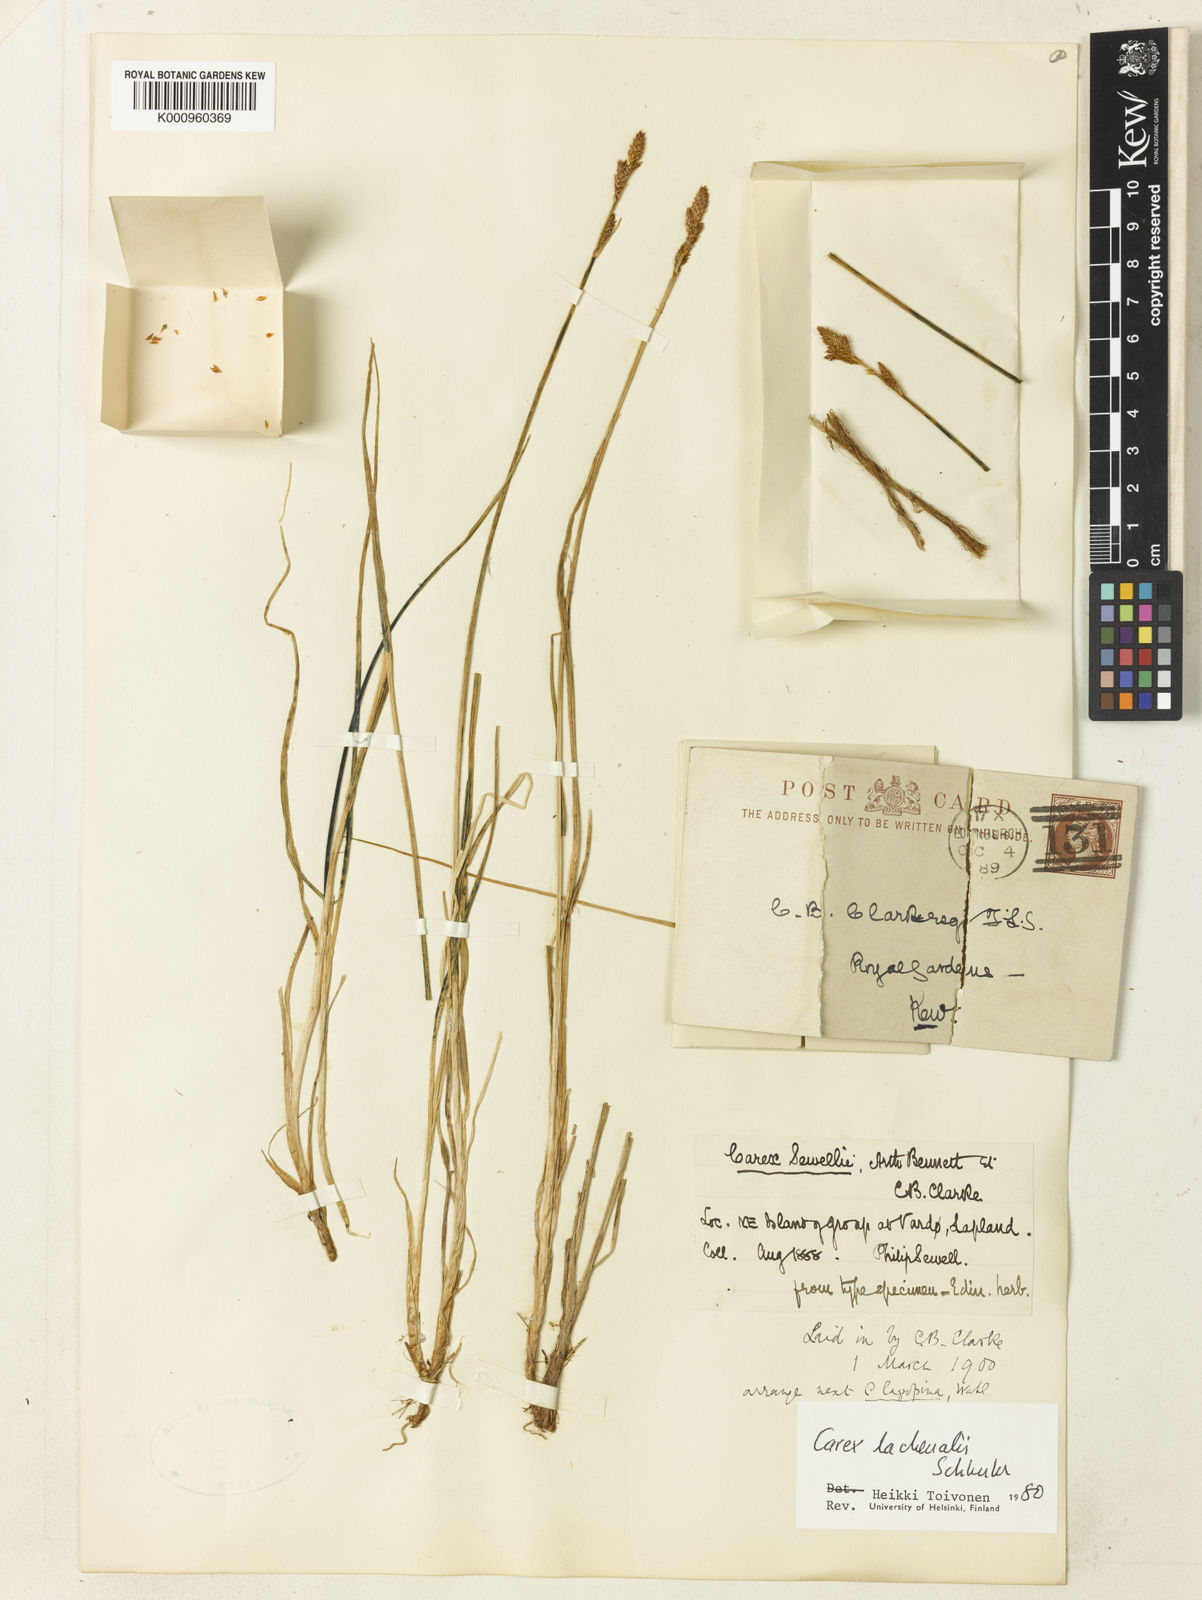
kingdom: Plantae
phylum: Tracheophyta
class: Liliopsida
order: Poales
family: Cyperaceae
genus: Carex
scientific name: Carex lachenalii
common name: Hare's-foot sedge
